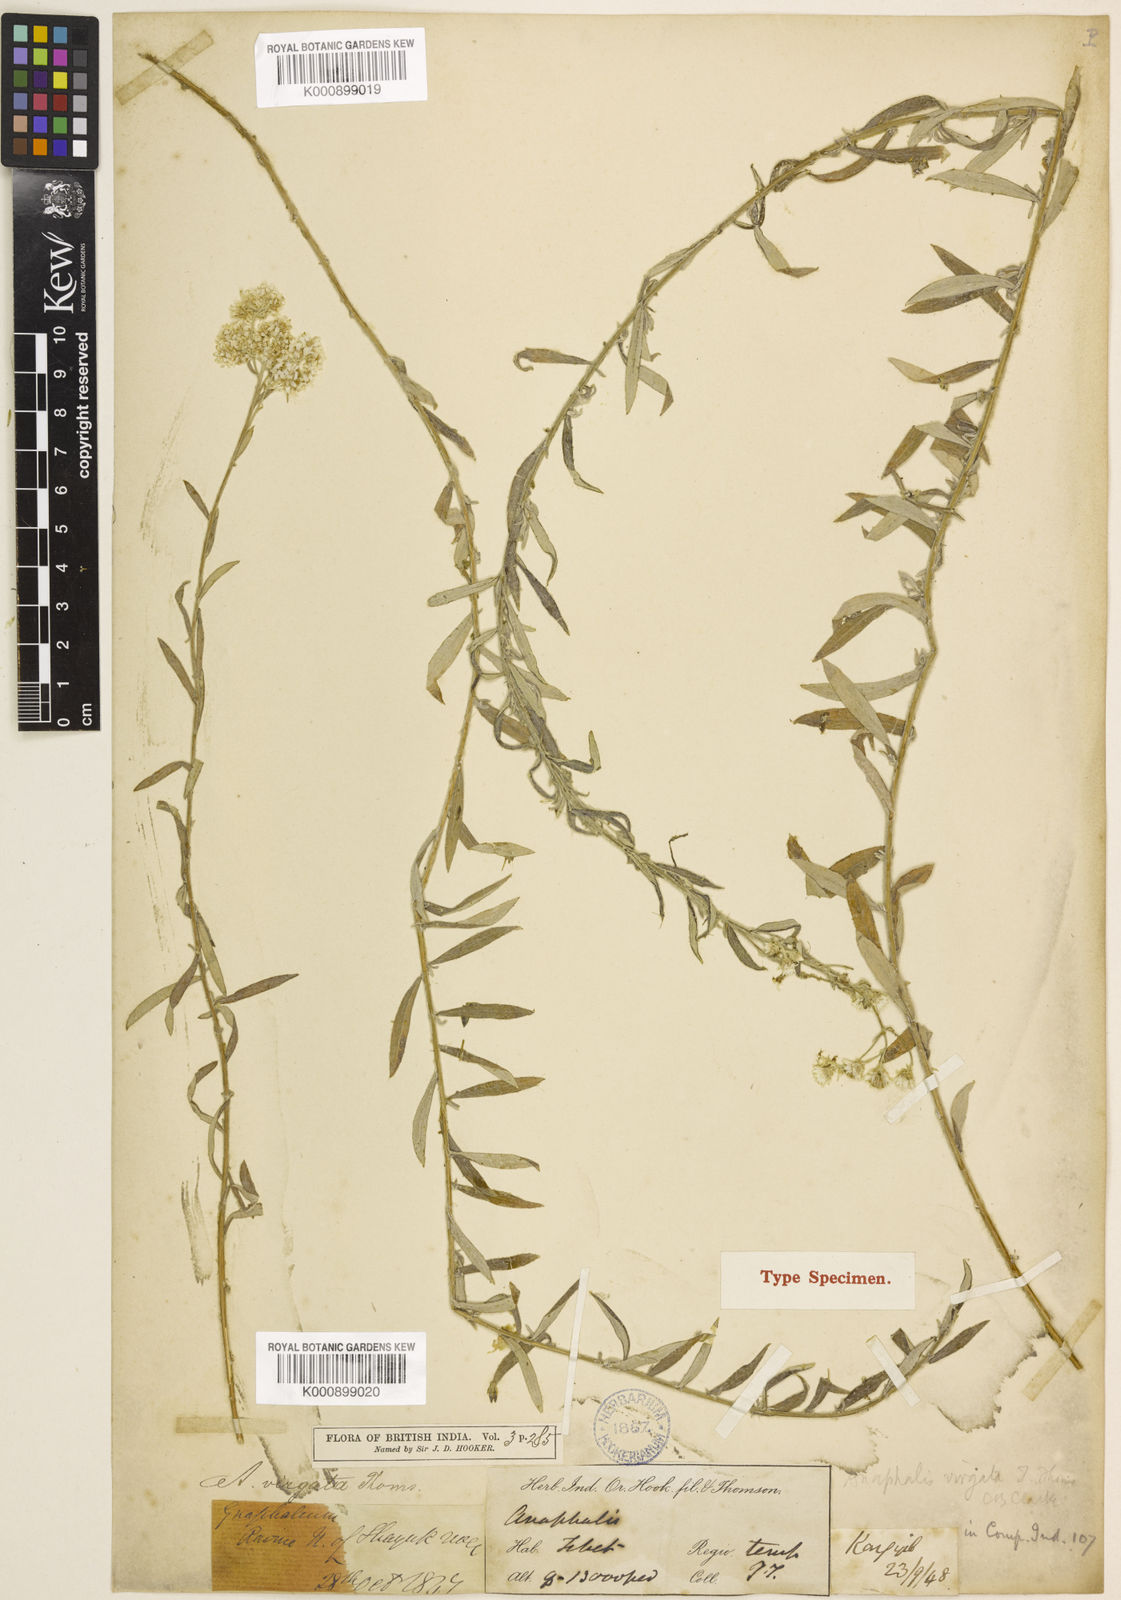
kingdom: Plantae
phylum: Tracheophyta
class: Magnoliopsida
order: Asterales
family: Asteraceae
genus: Anaphalis
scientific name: Anaphalis virgata
